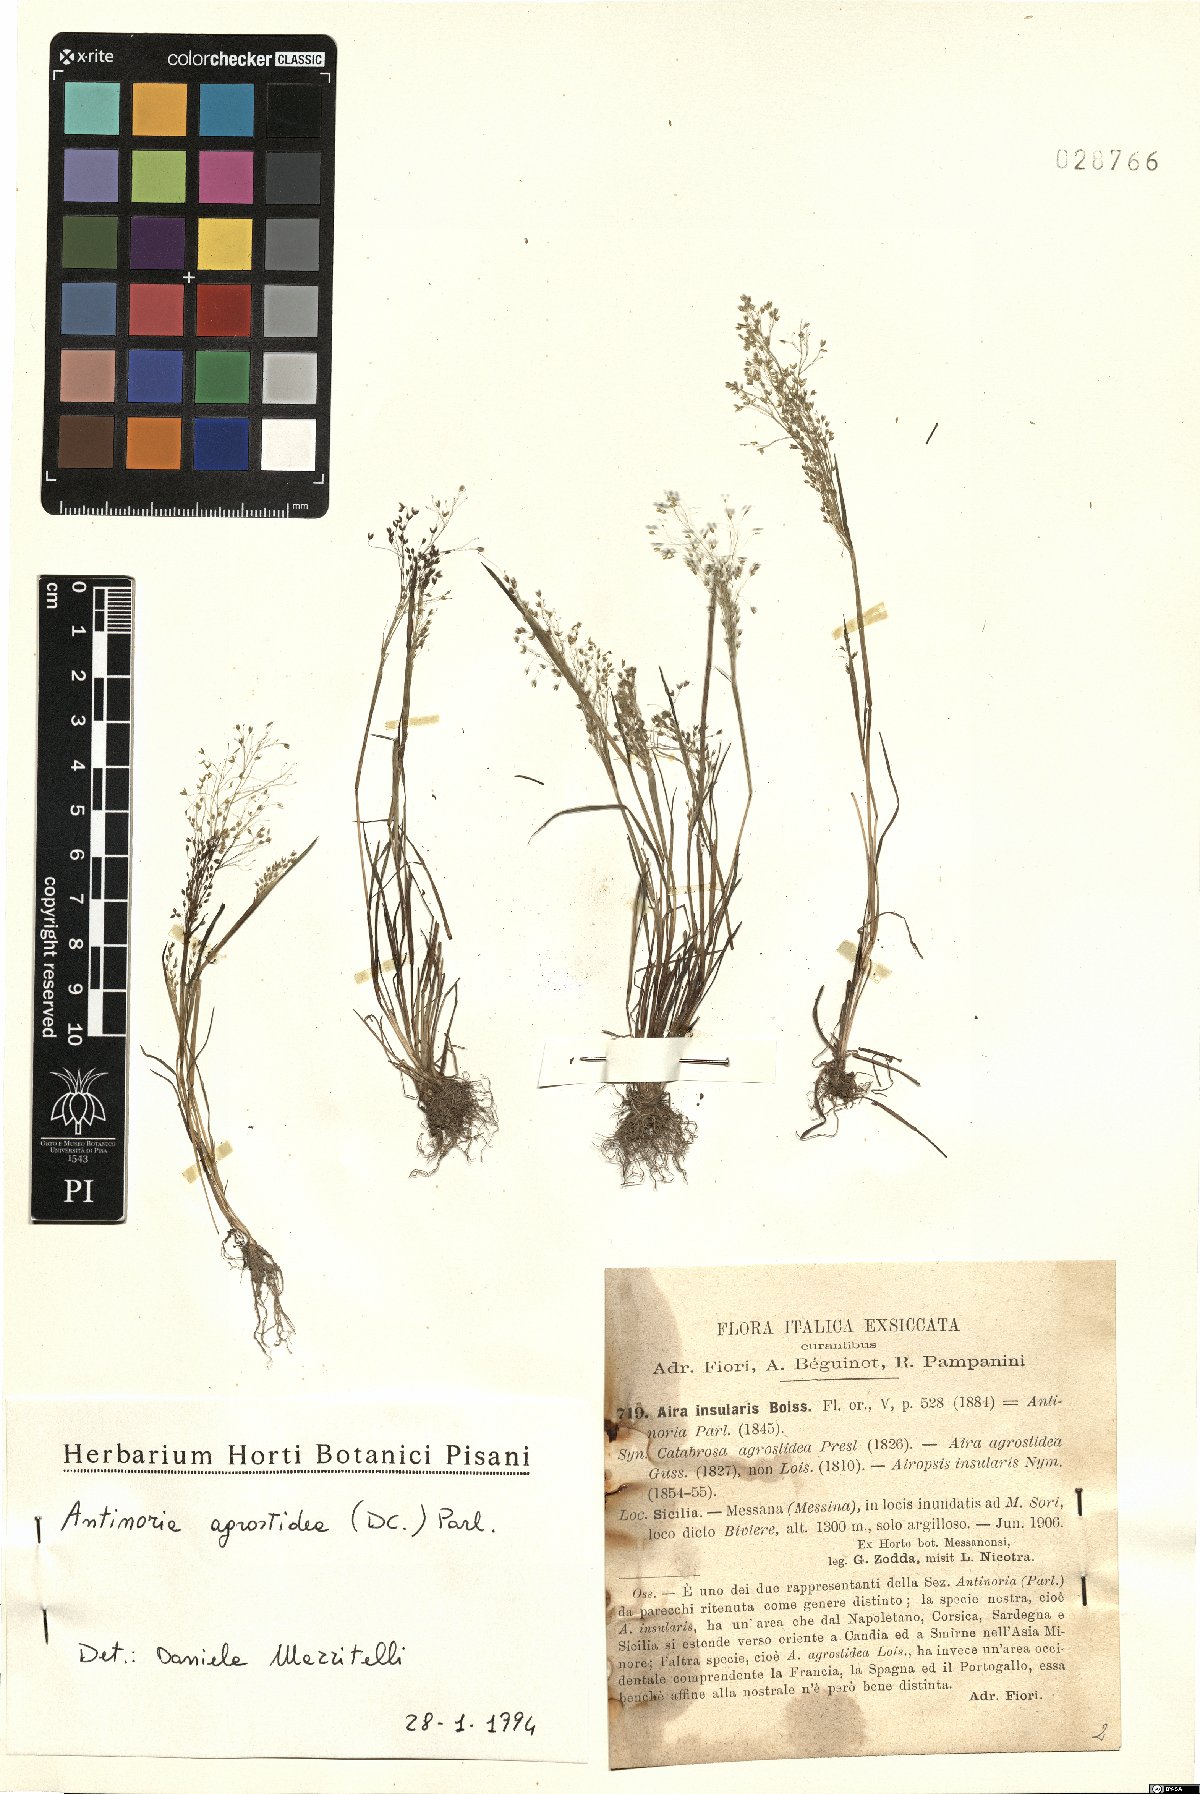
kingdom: Plantae
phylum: Tracheophyta
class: Liliopsida
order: Poales
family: Poaceae
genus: Antinoria
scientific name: Antinoria insularis
